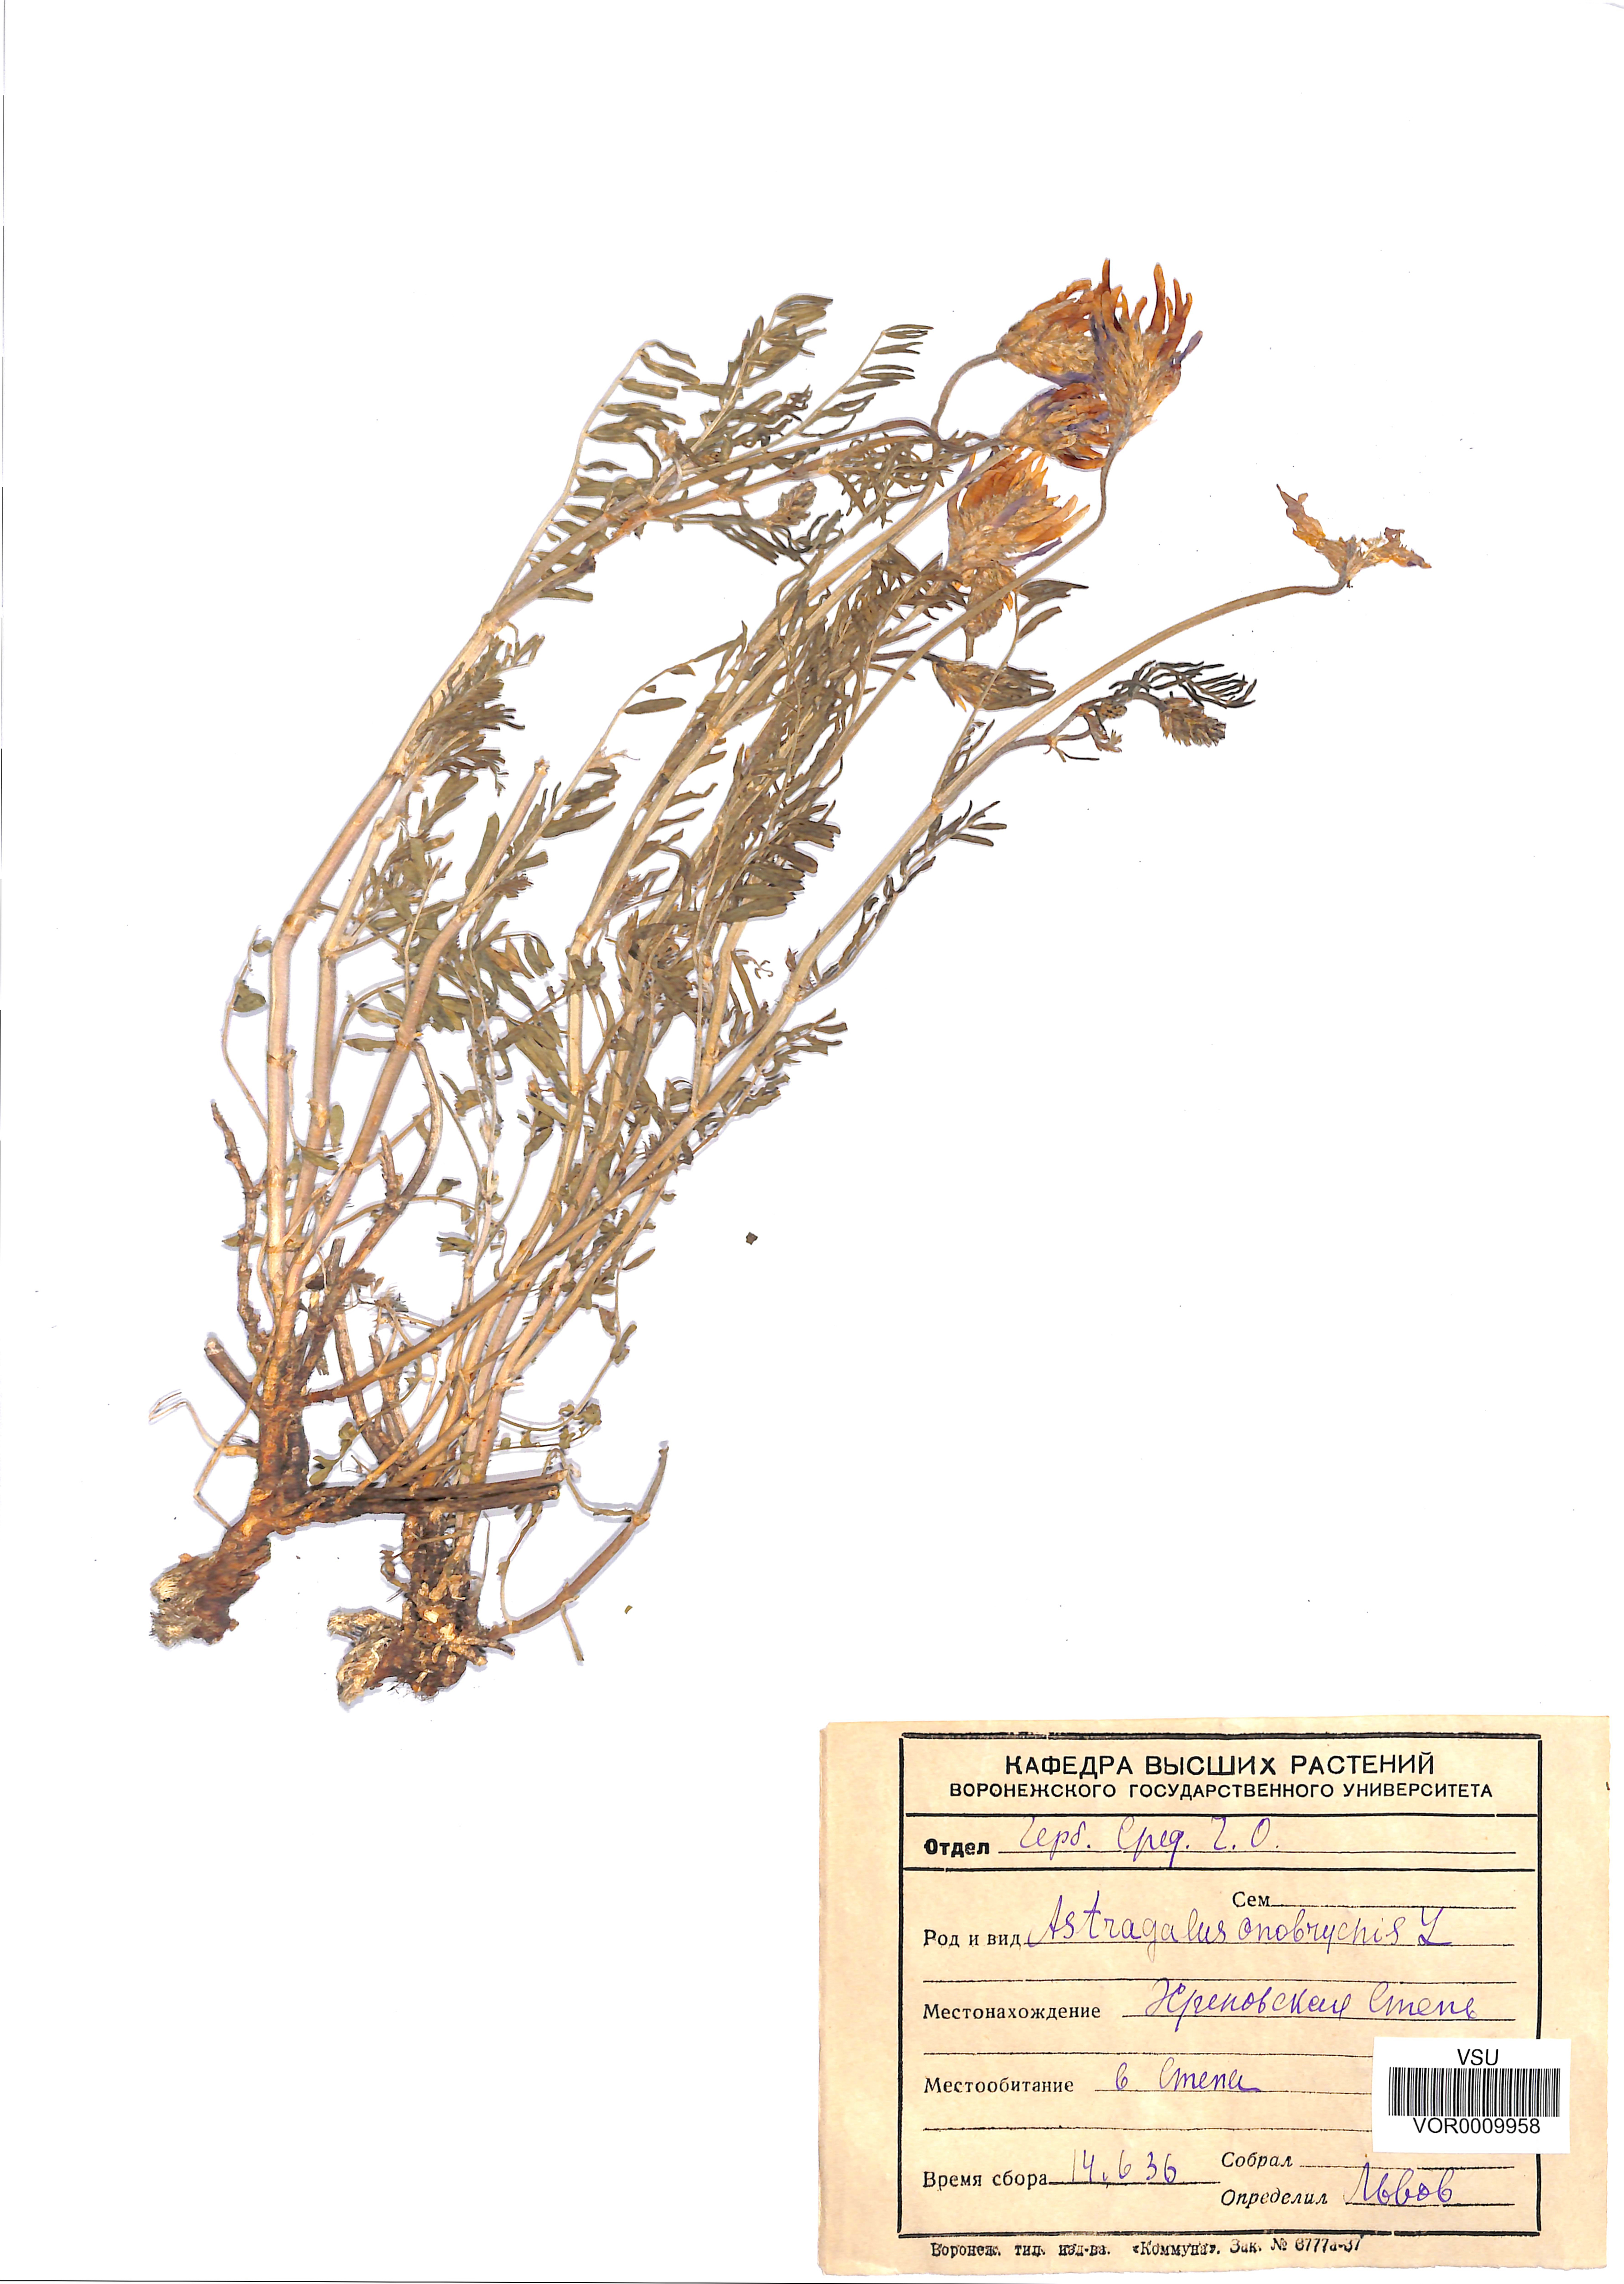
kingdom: Plantae
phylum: Tracheophyta
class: Magnoliopsida
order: Fabales
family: Fabaceae
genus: Astragalus
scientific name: Astragalus onobrychis
